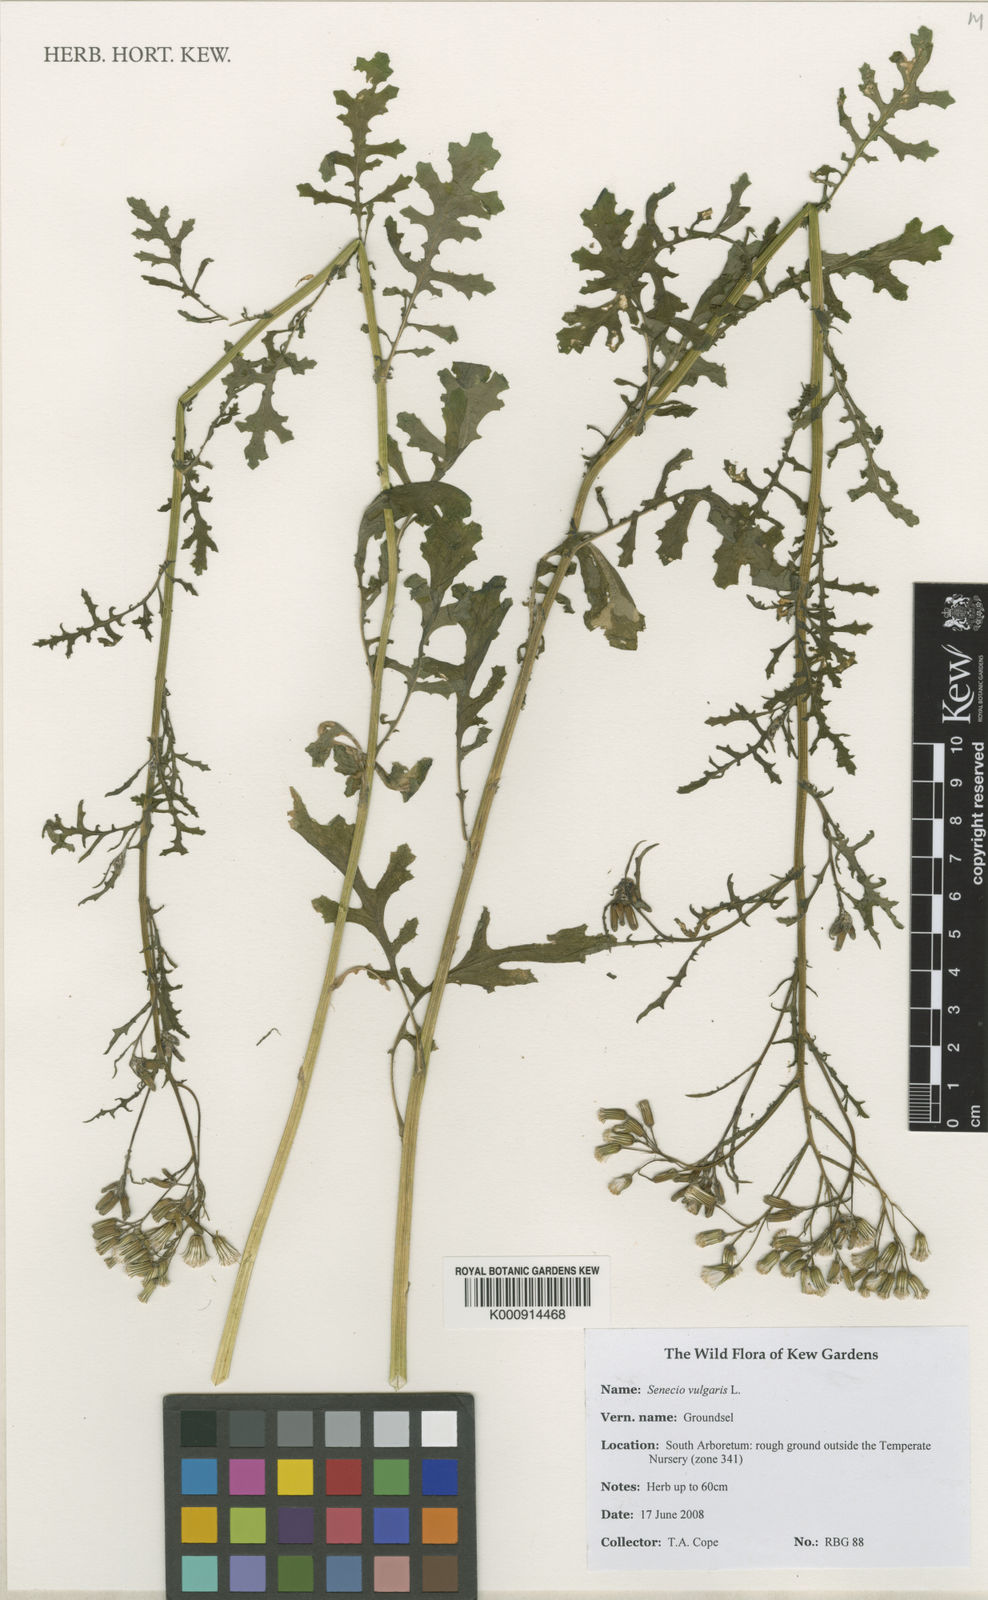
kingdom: Plantae
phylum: Tracheophyta
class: Magnoliopsida
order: Asterales
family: Asteraceae
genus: Senecio
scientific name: Senecio vulgaris
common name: Old-man-in-the-spring
